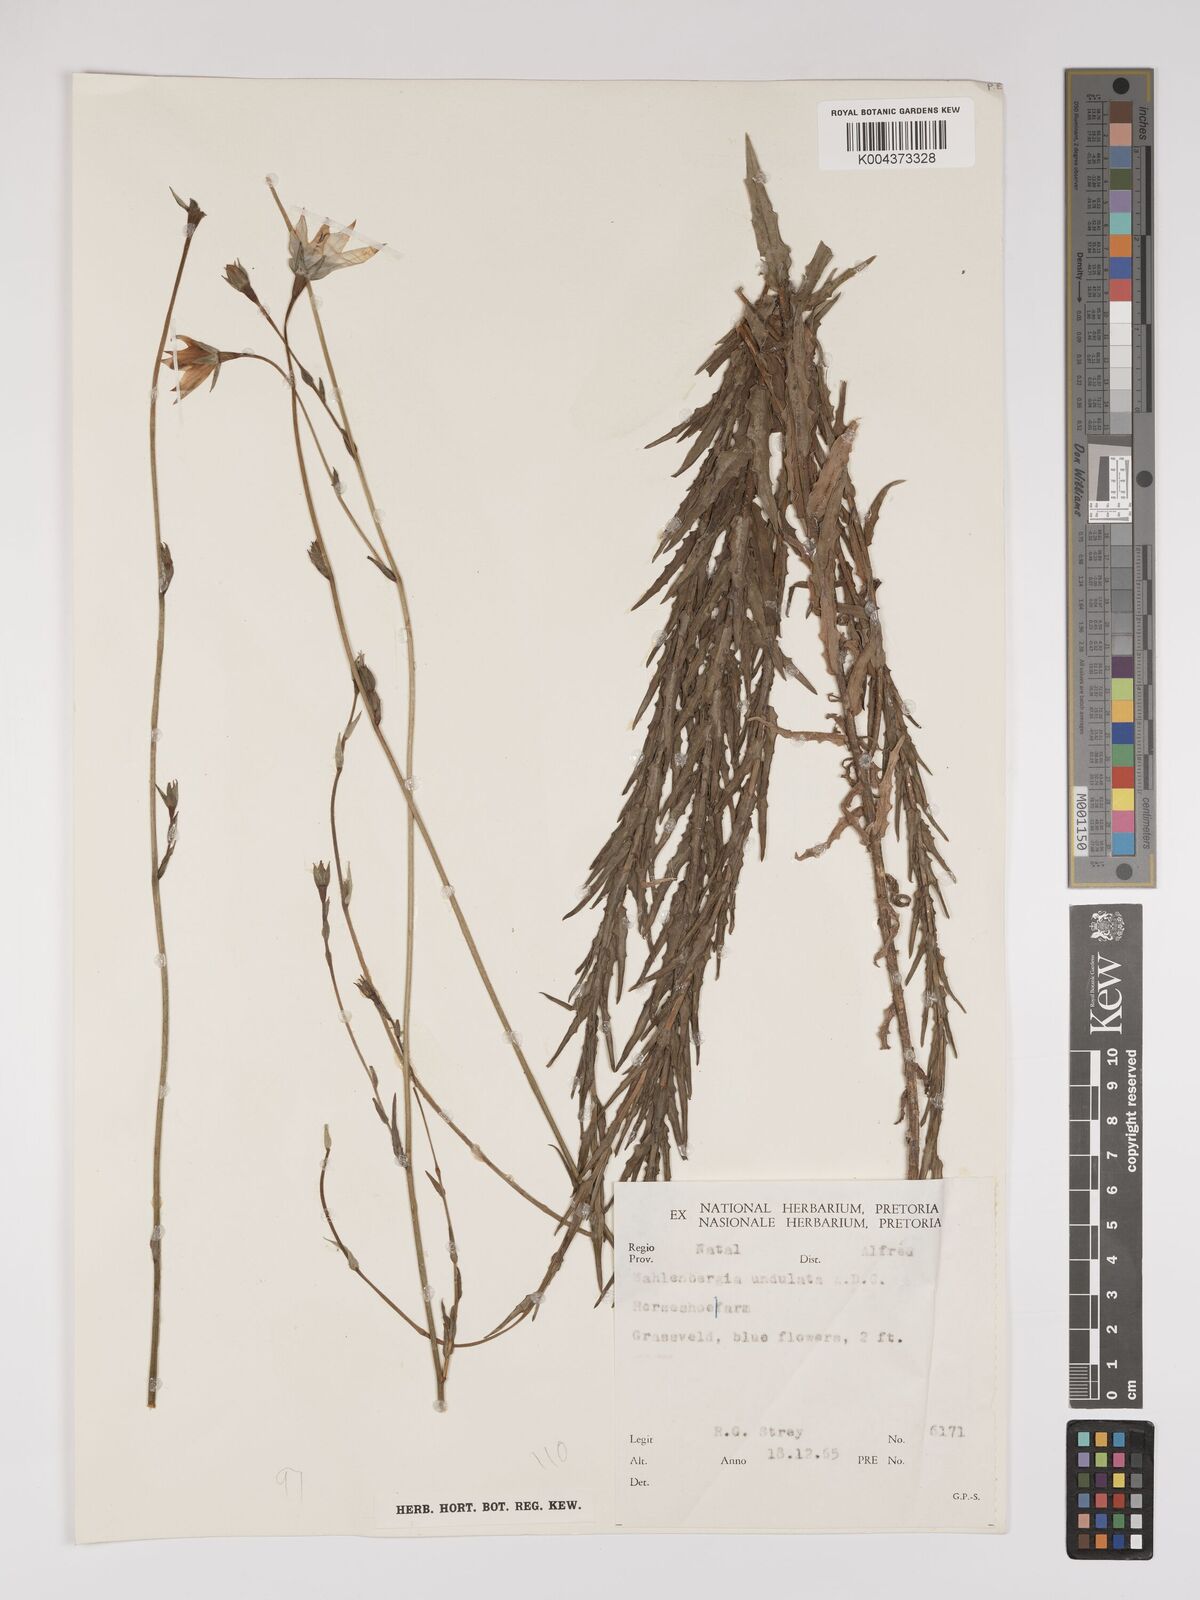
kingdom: Plantae
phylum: Tracheophyta
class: Magnoliopsida
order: Asterales
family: Campanulaceae
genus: Wahlenbergia
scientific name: Wahlenbergia undulata
